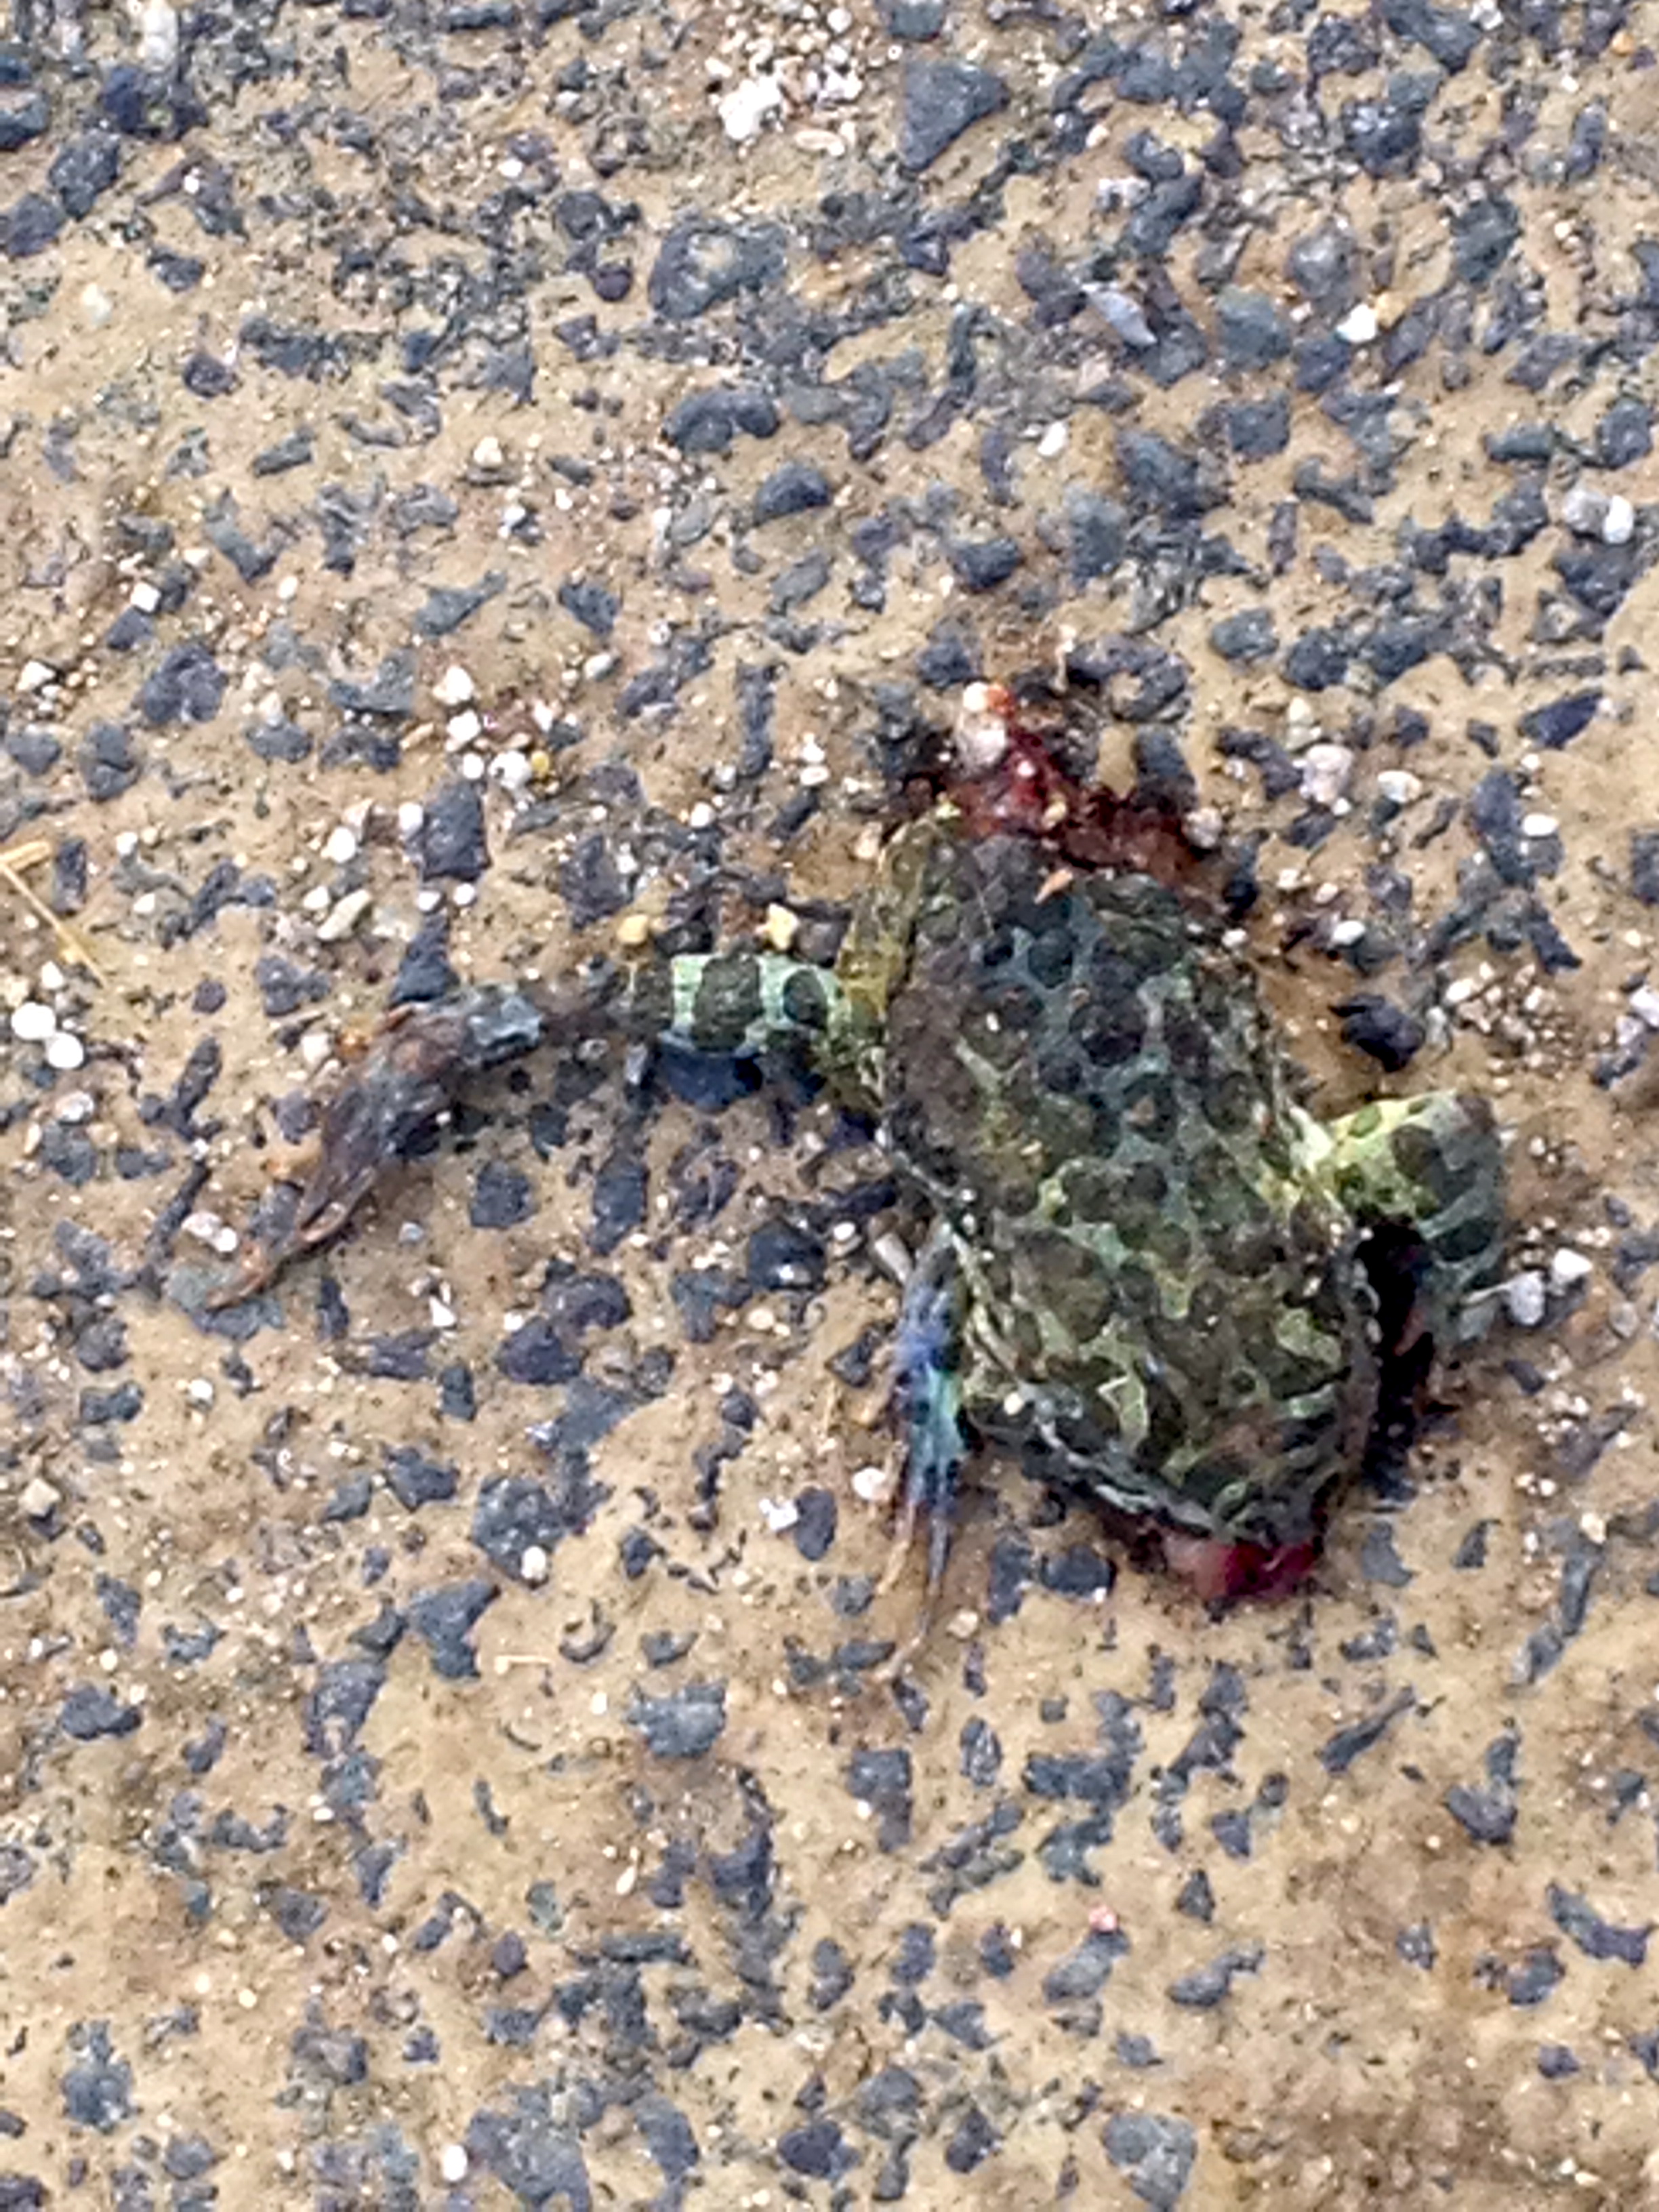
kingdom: Animalia
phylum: Chordata
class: Amphibia
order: Anura
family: Bufonidae
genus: Bufotes
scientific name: Bufotes viridis
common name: European green toad
